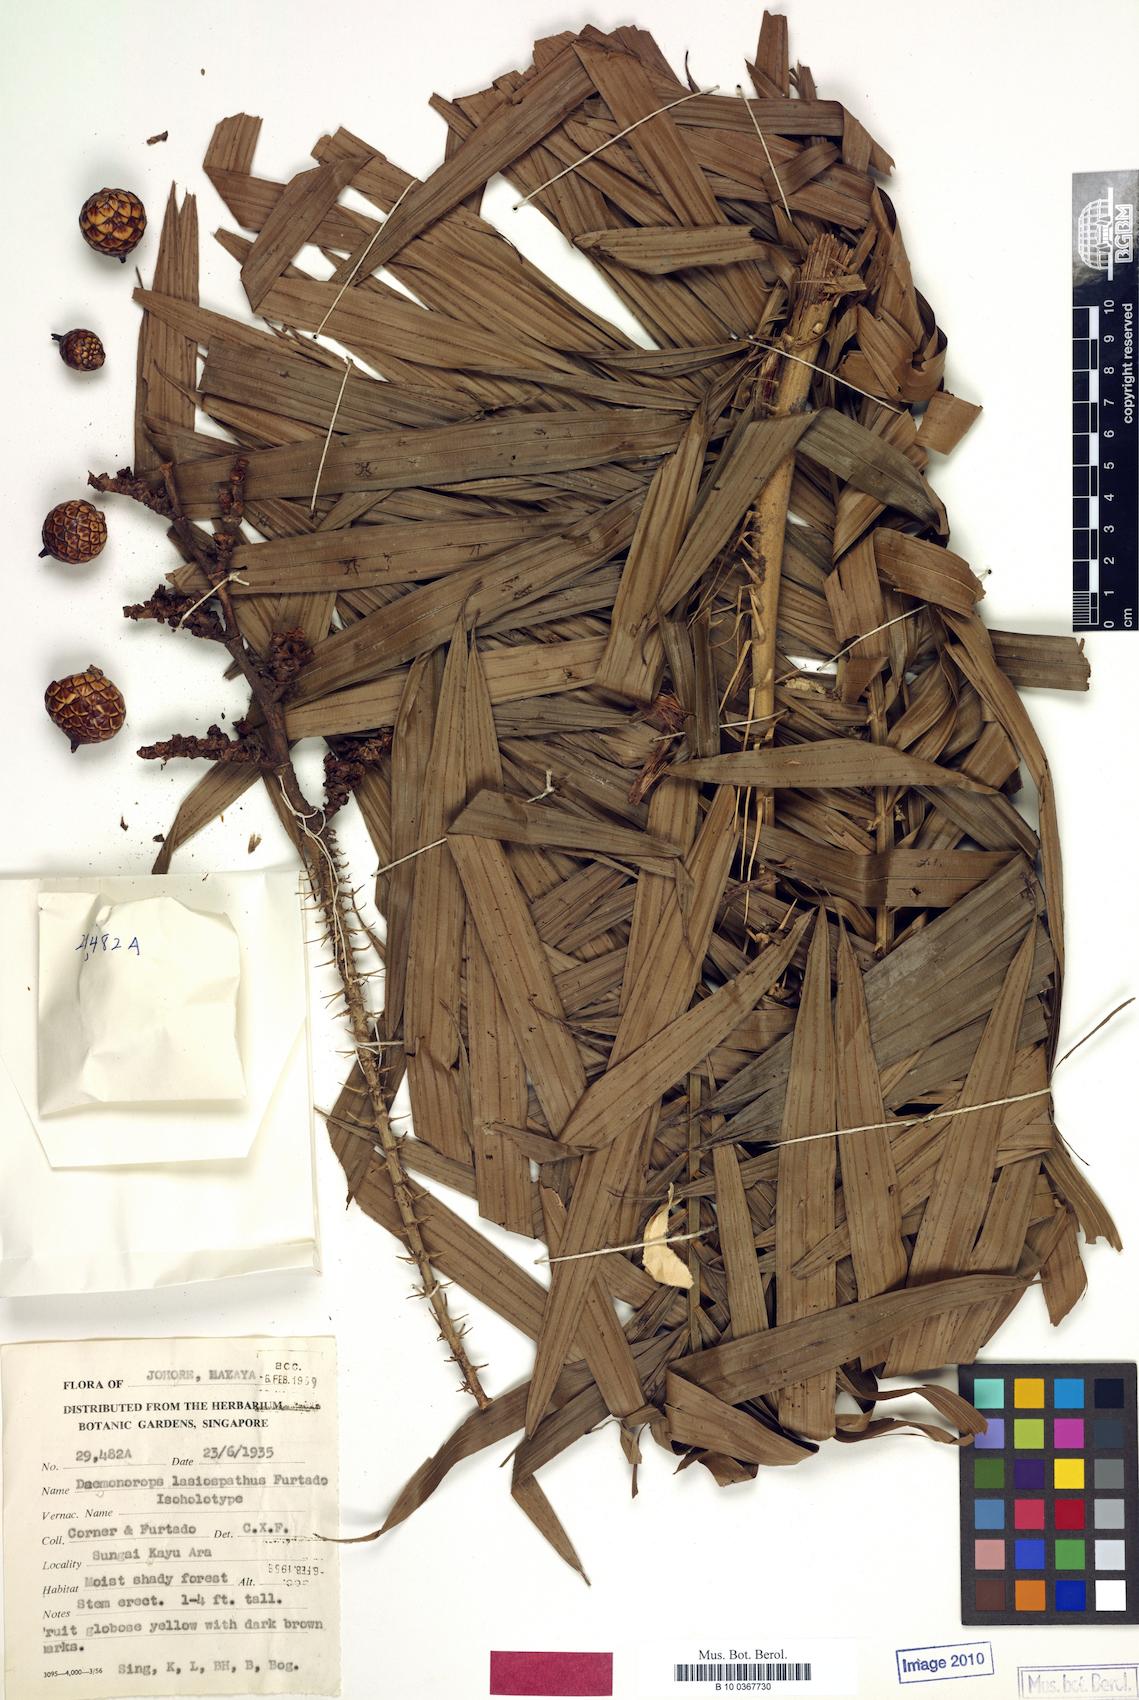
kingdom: Plantae
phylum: Tracheophyta
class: Liliopsida
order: Arecales
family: Arecaceae
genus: Calamus
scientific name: Calamus scapigerus
